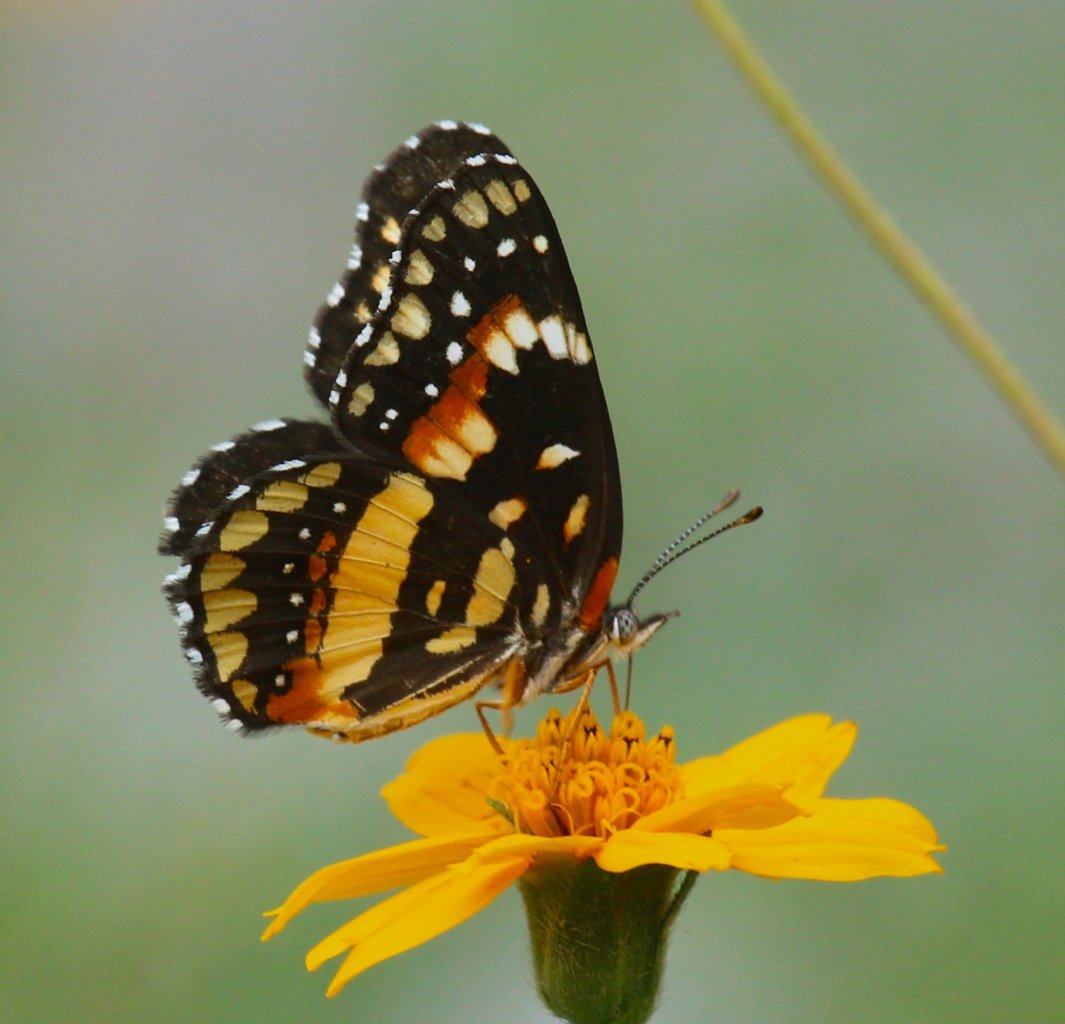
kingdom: Animalia
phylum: Arthropoda
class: Insecta
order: Lepidoptera
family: Nymphalidae
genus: Chlosyne
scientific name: Chlosyne lacinia
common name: Bordered Patch
